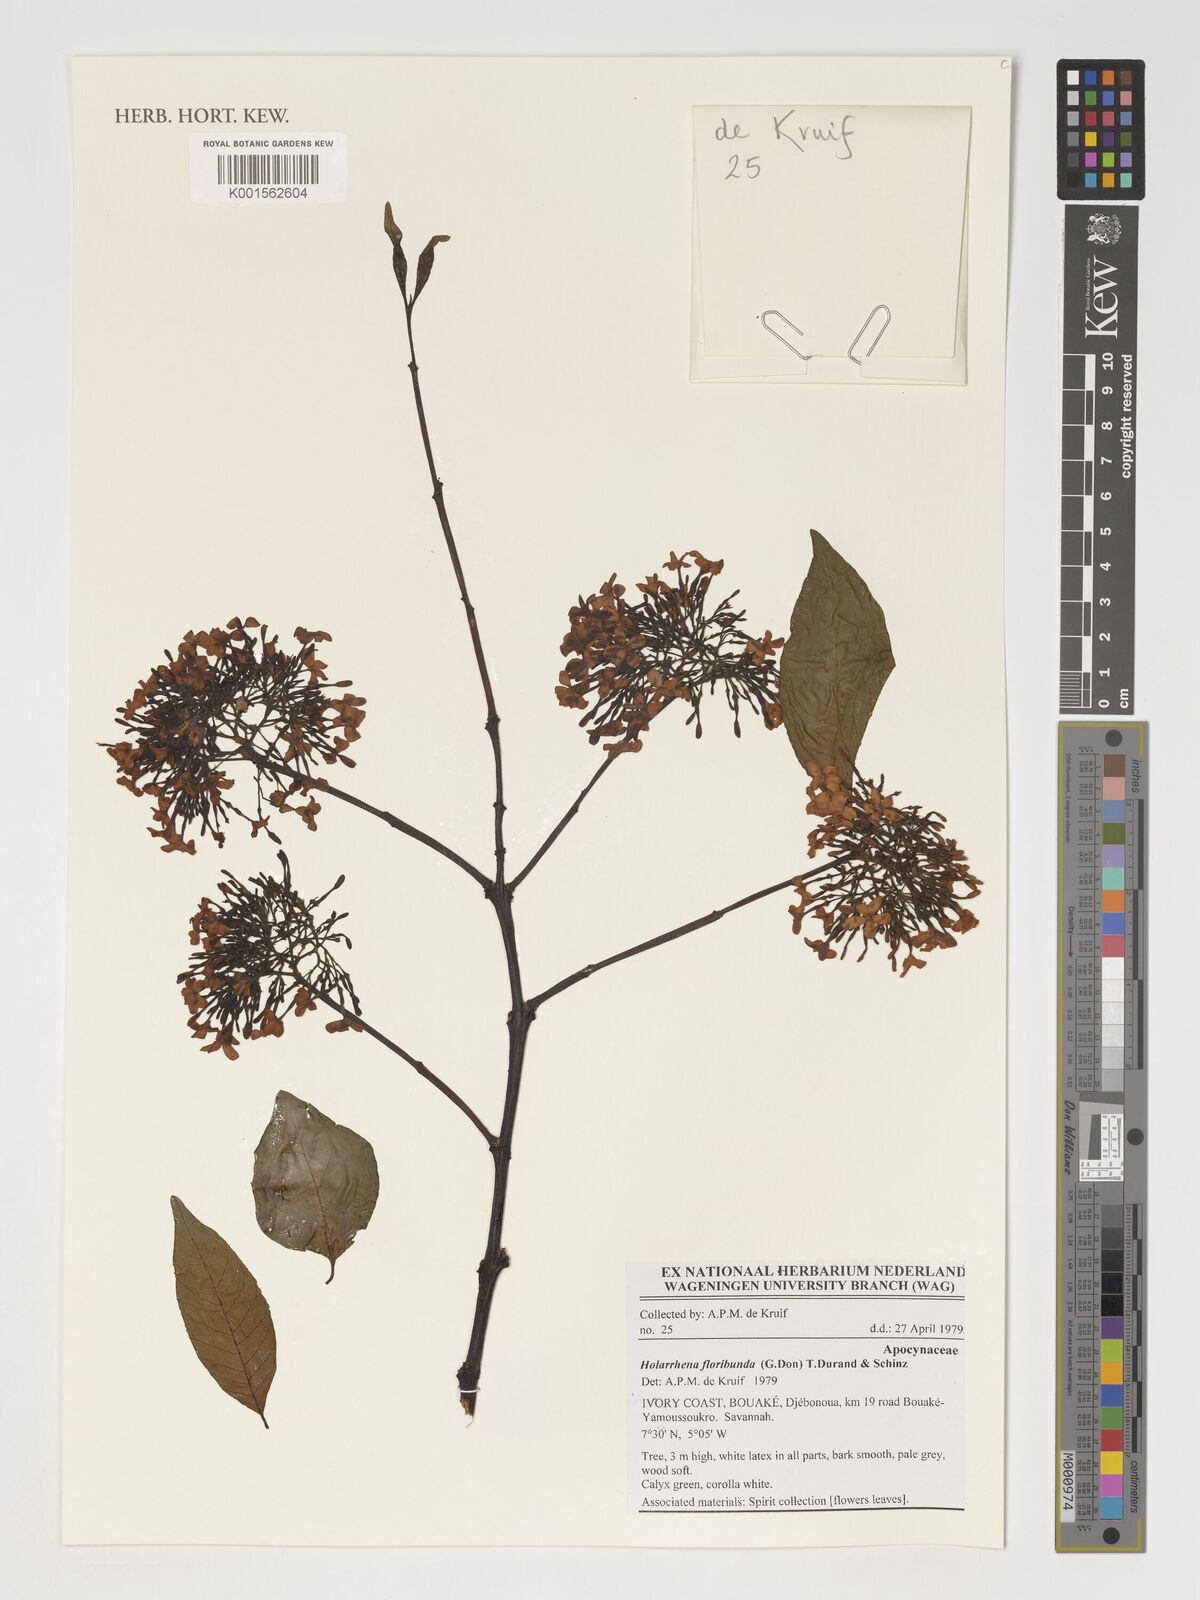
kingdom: Plantae
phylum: Tracheophyta
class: Magnoliopsida
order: Gentianales
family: Apocynaceae
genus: Holarrhena
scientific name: Holarrhena floribunda
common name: Kurchibark
